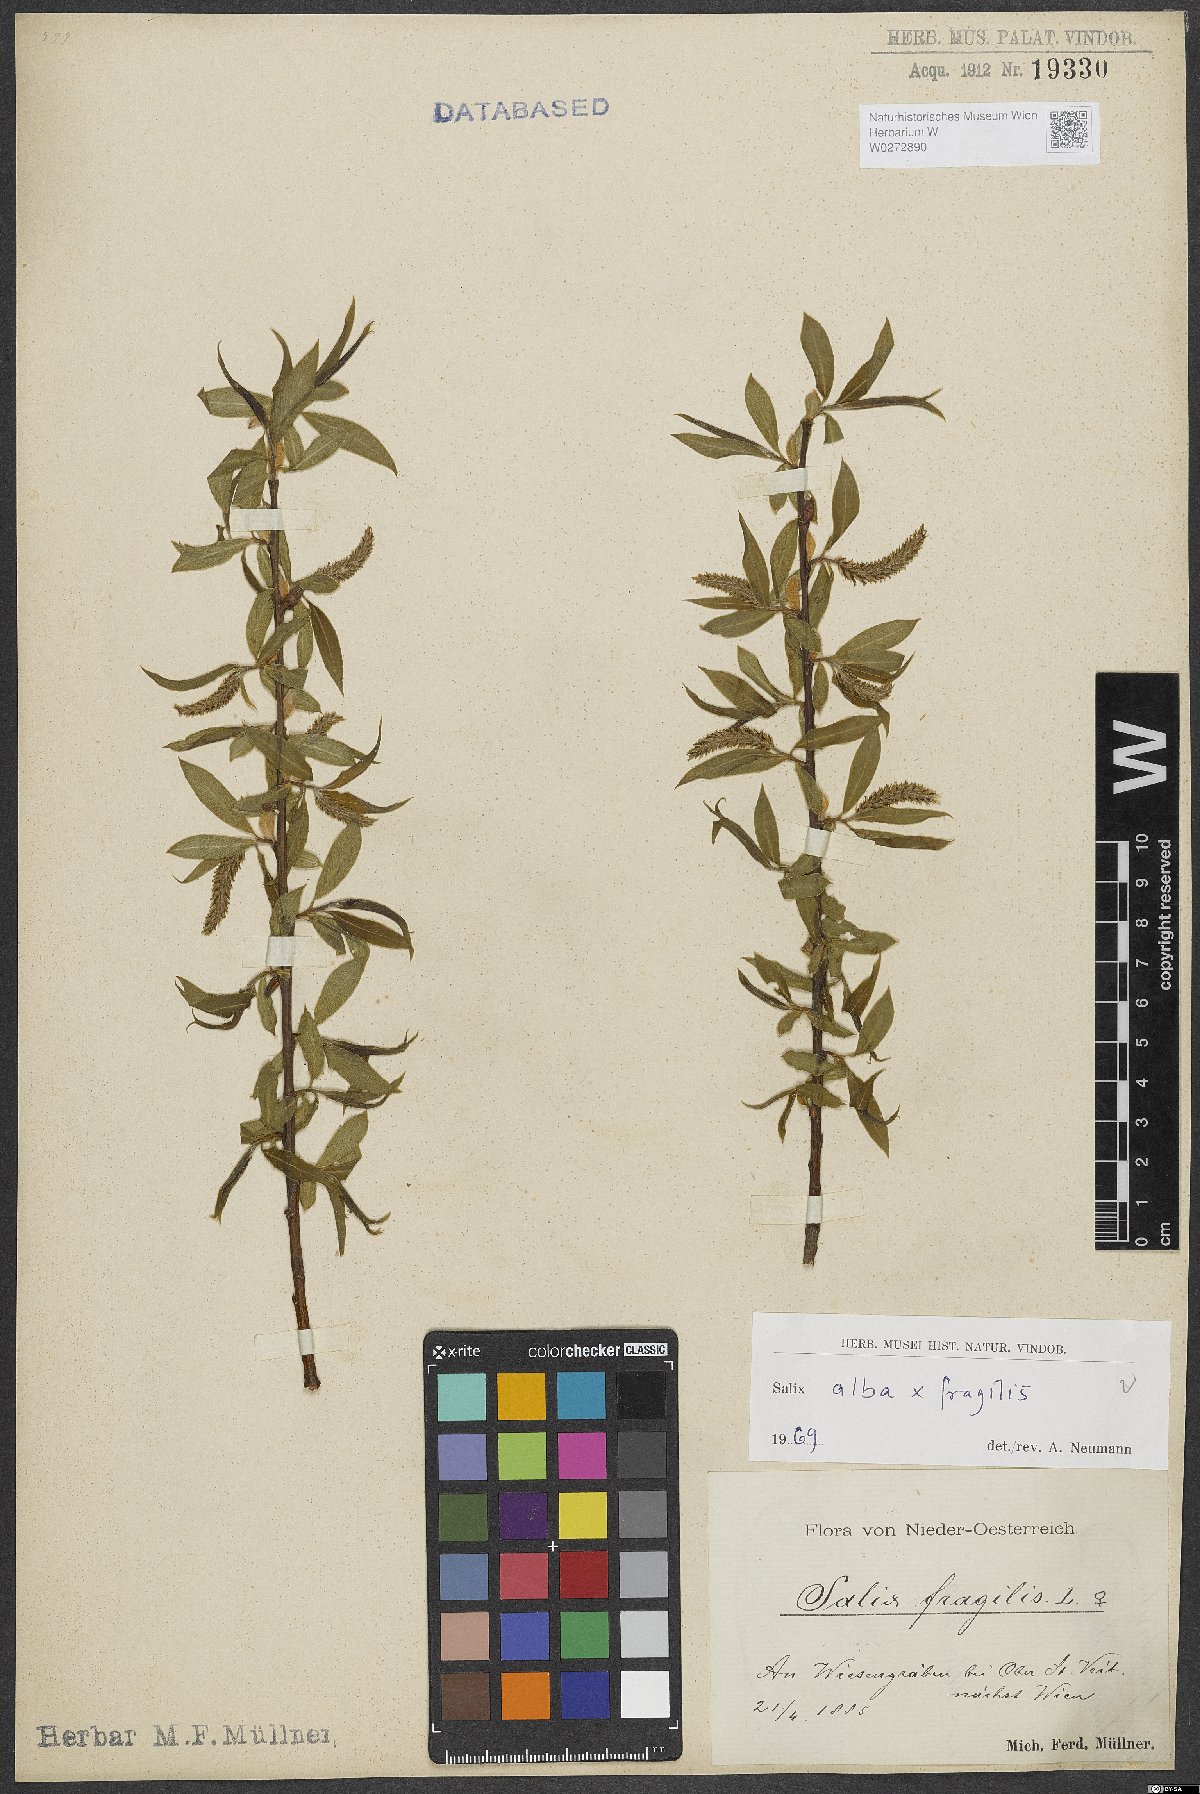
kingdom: Plantae
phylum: Tracheophyta
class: Magnoliopsida
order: Malpighiales
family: Salicaceae
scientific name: Salicaceae
